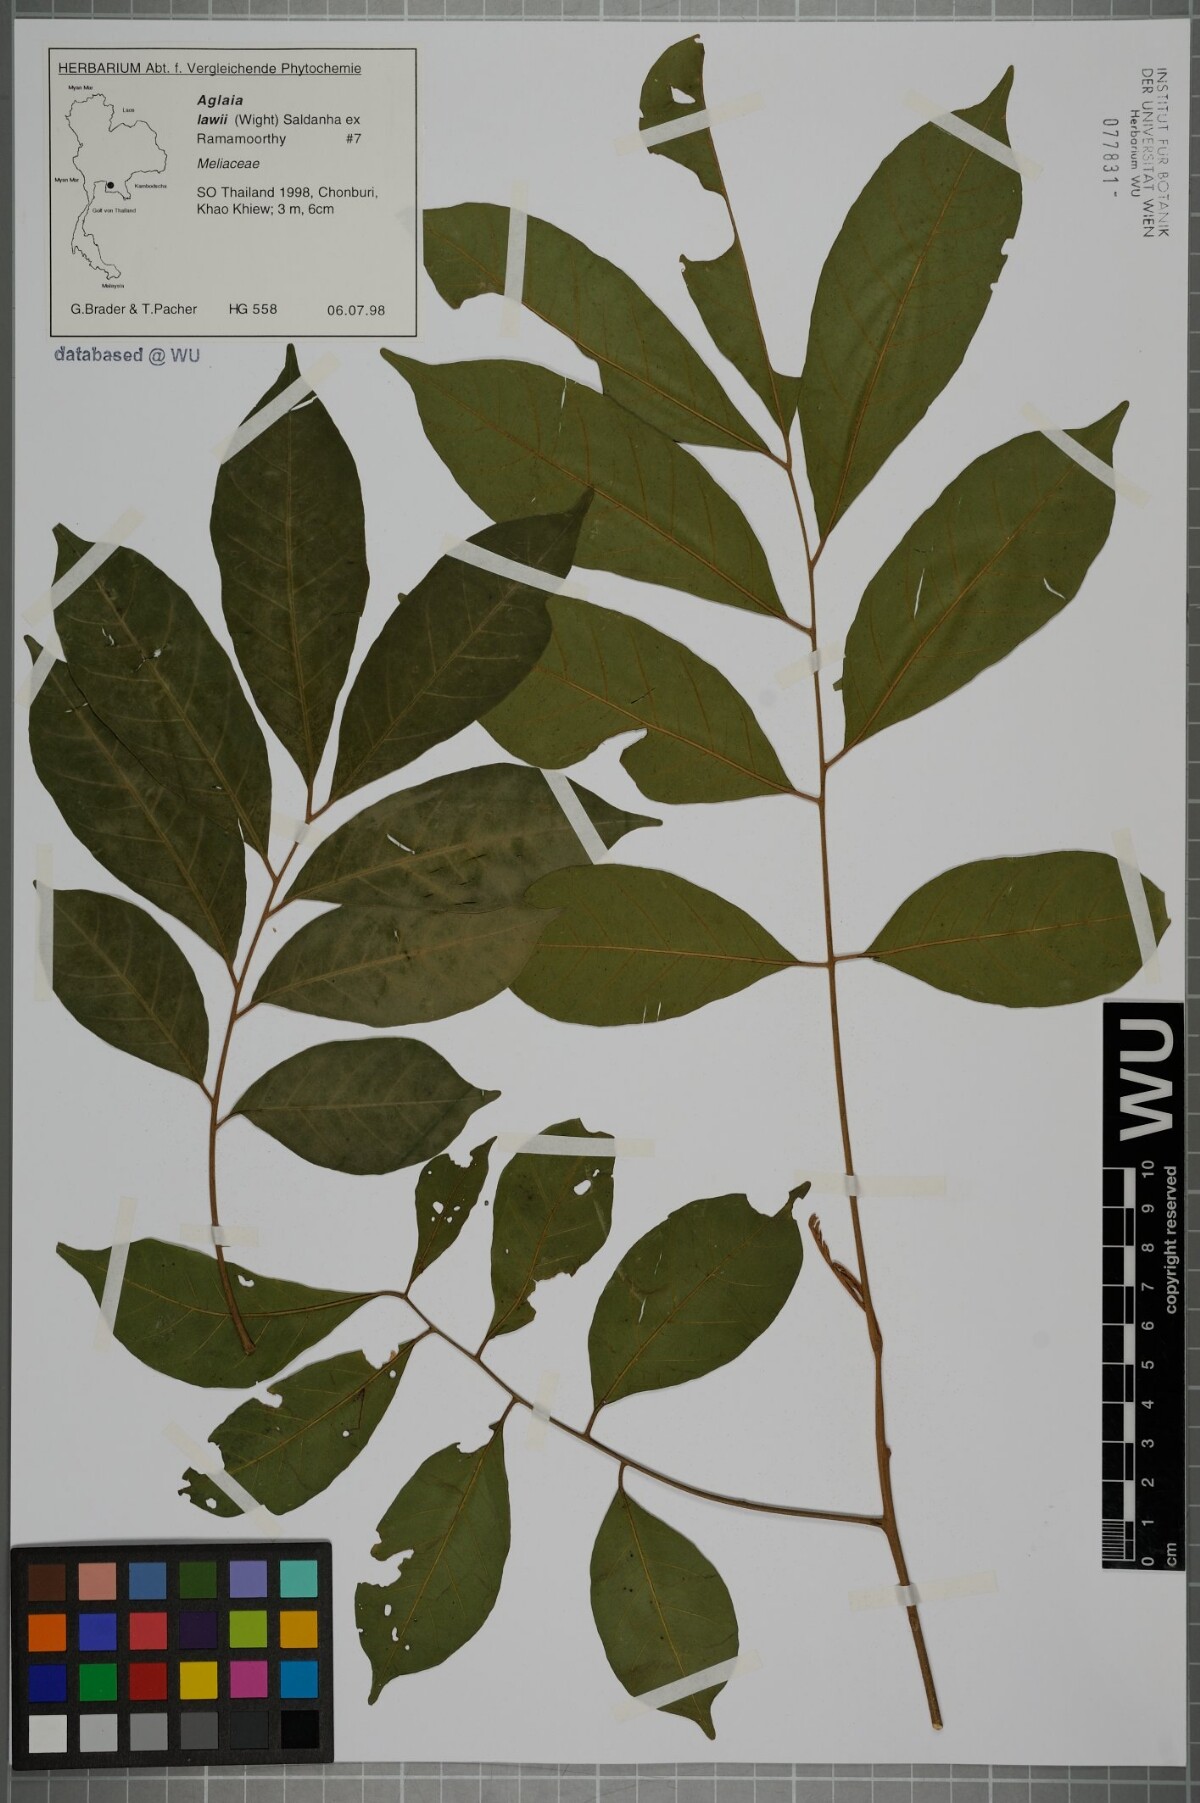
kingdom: Plantae
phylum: Tracheophyta
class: Magnoliopsida
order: Sapindales
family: Meliaceae
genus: Aglaia
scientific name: Aglaia lawii
